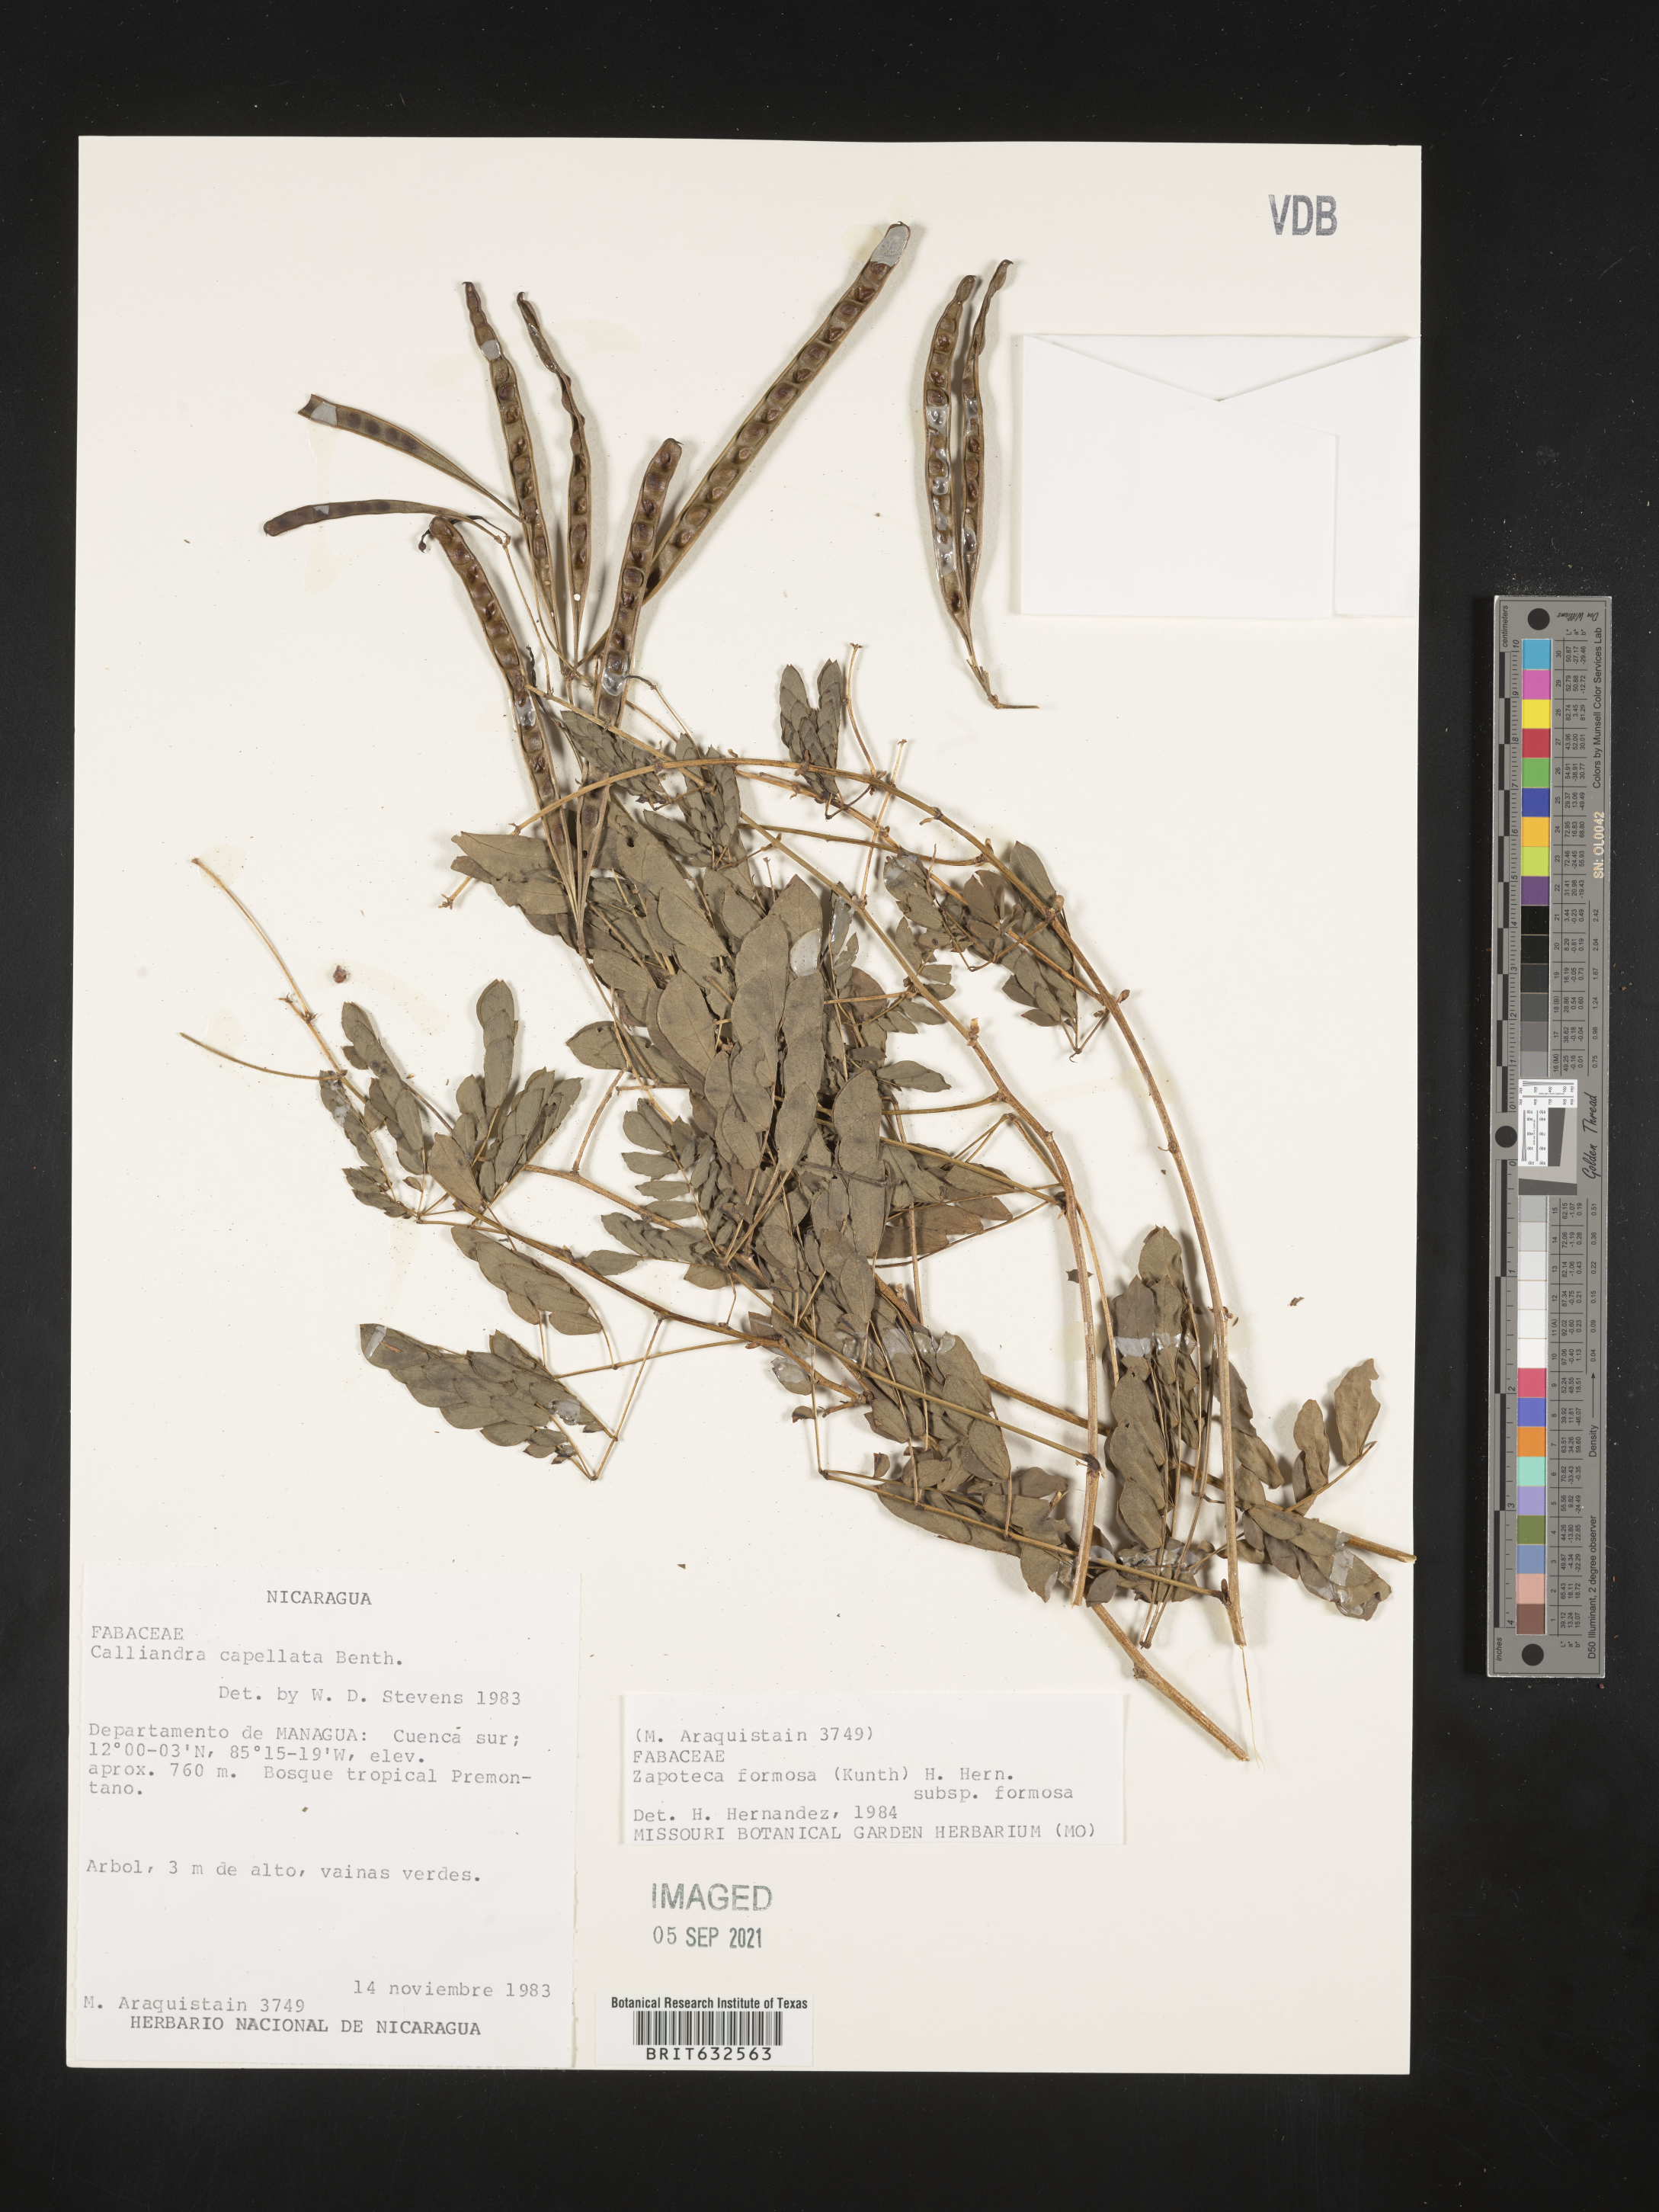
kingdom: Plantae
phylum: Tracheophyta
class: Magnoliopsida
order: Fabales
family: Fabaceae
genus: Zapoteca
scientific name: Zapoteca
